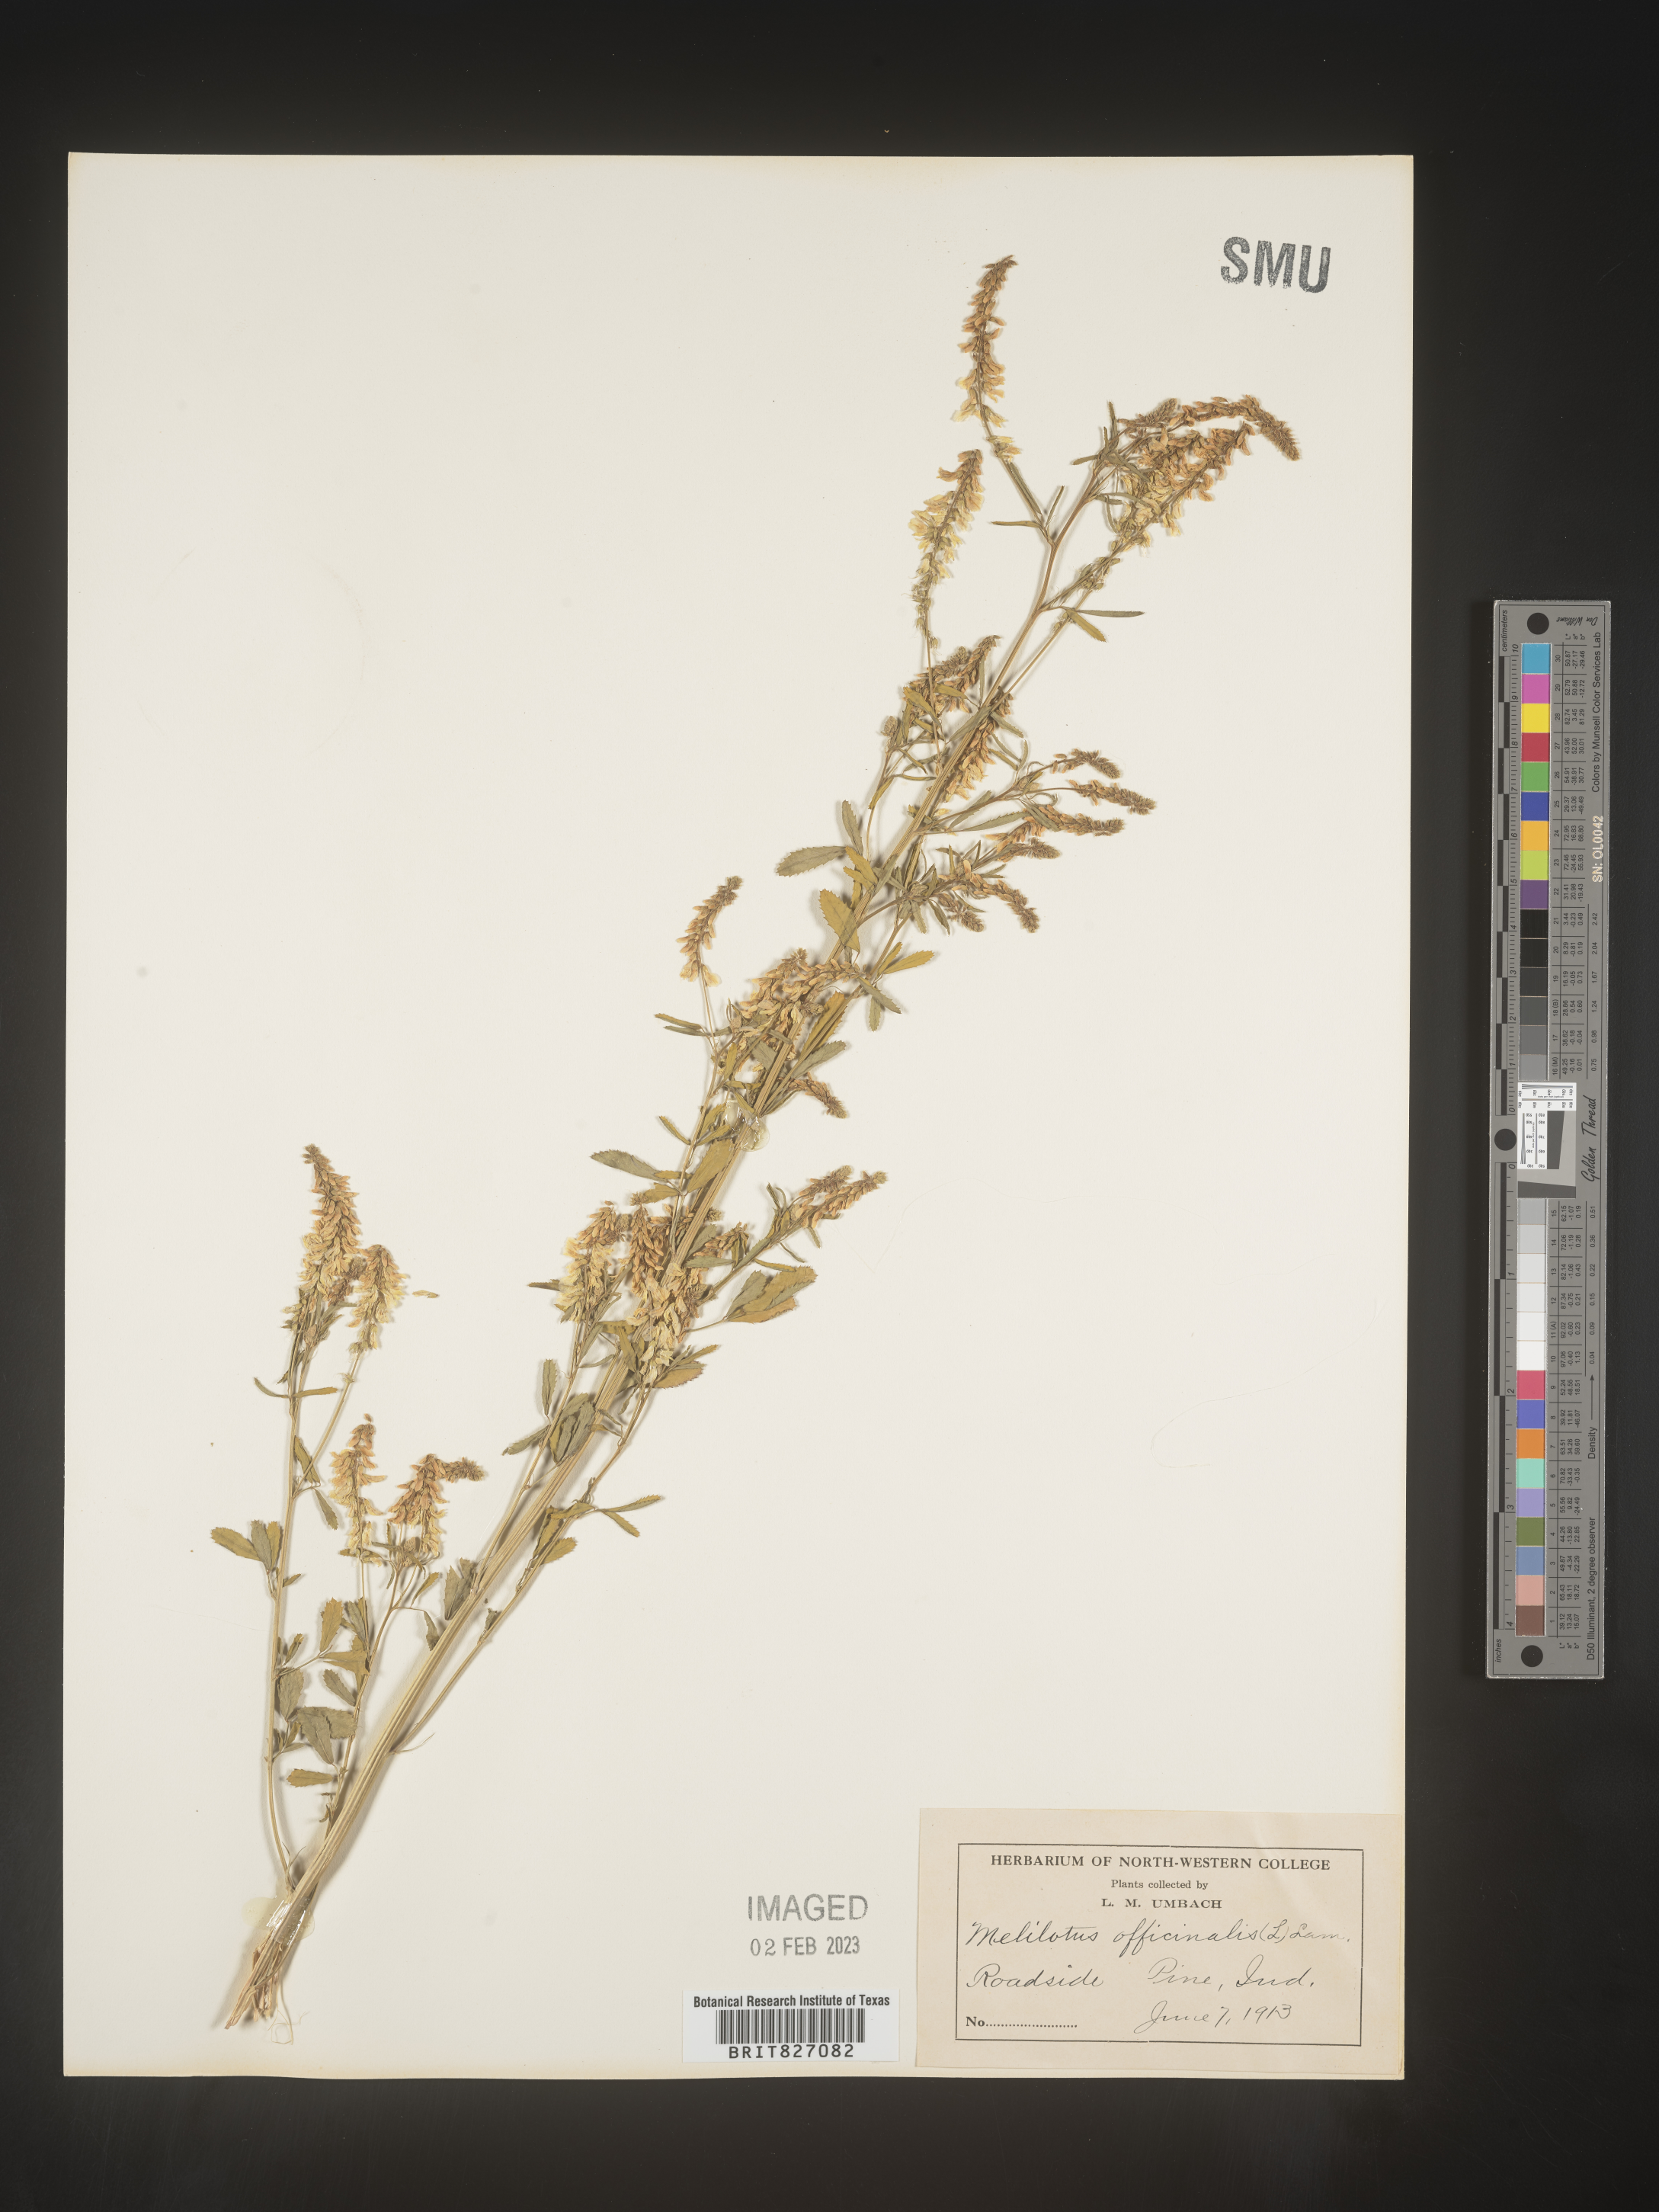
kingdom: Plantae
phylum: Tracheophyta
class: Magnoliopsida
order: Fabales
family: Fabaceae
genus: Melilotus
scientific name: Melilotus officinalis
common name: Sweetclover
